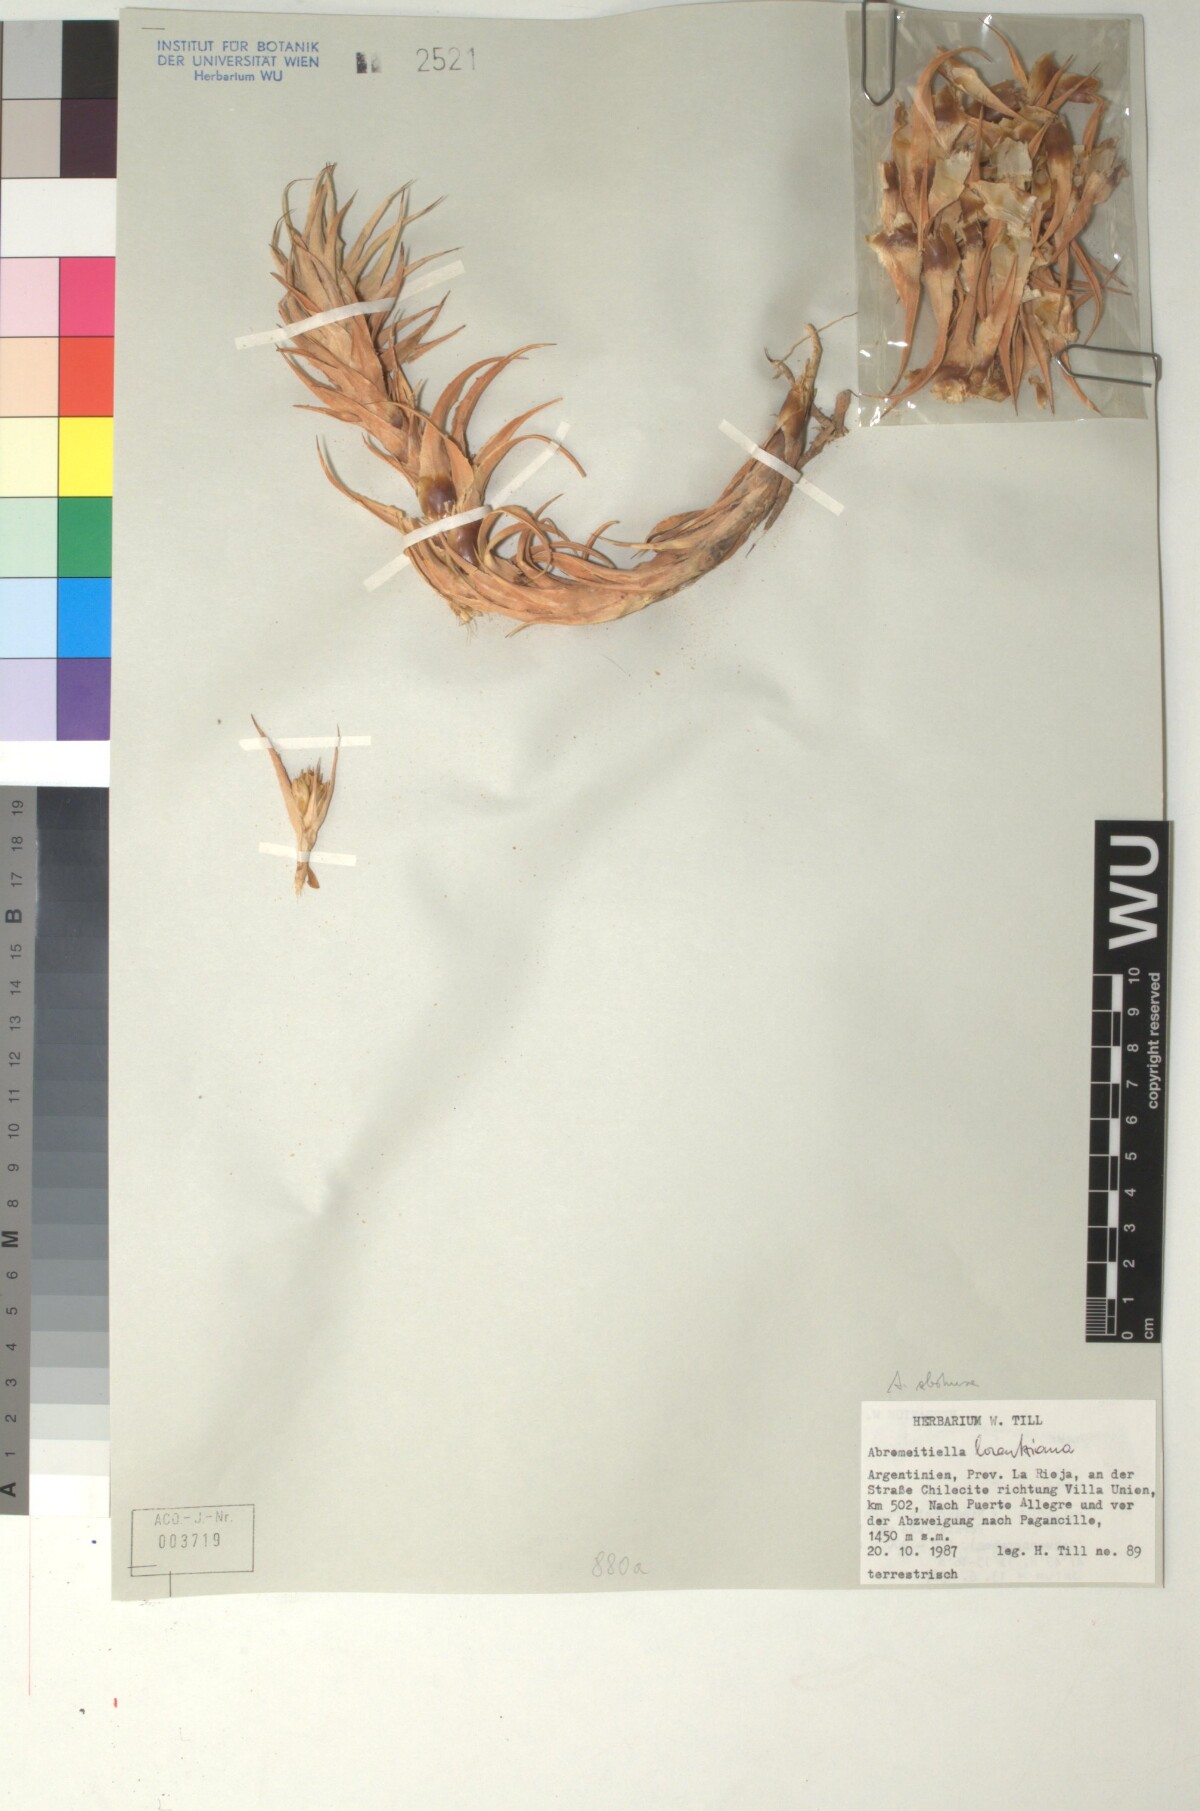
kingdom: Plantae
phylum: Tracheophyta
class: Liliopsida
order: Poales
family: Bromeliaceae
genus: Deuterocohnia
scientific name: Deuterocohnia abstrusa
